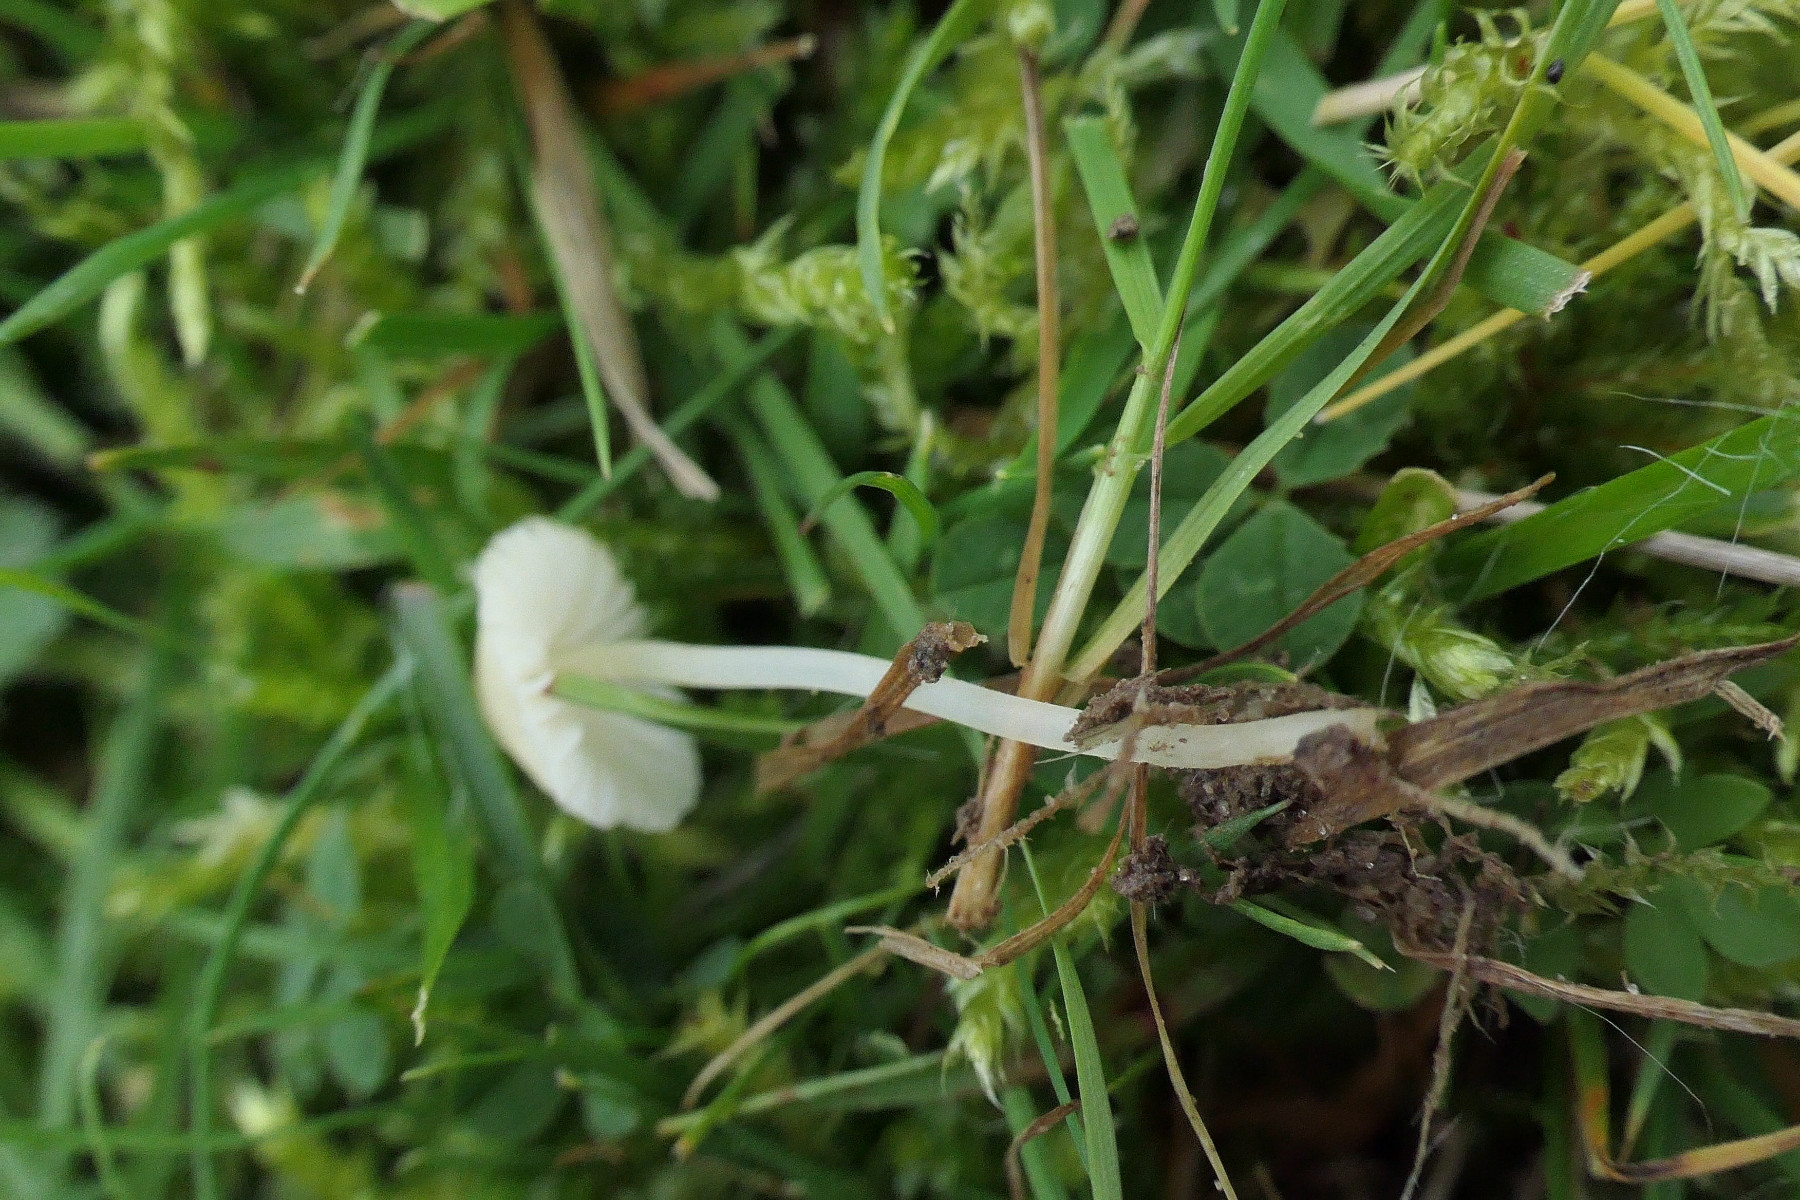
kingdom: Fungi
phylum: Basidiomycota
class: Agaricomycetes
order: Agaricales
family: Mycenaceae
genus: Atheniella
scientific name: Atheniella flavoalba
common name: gulhvid huesvamp
